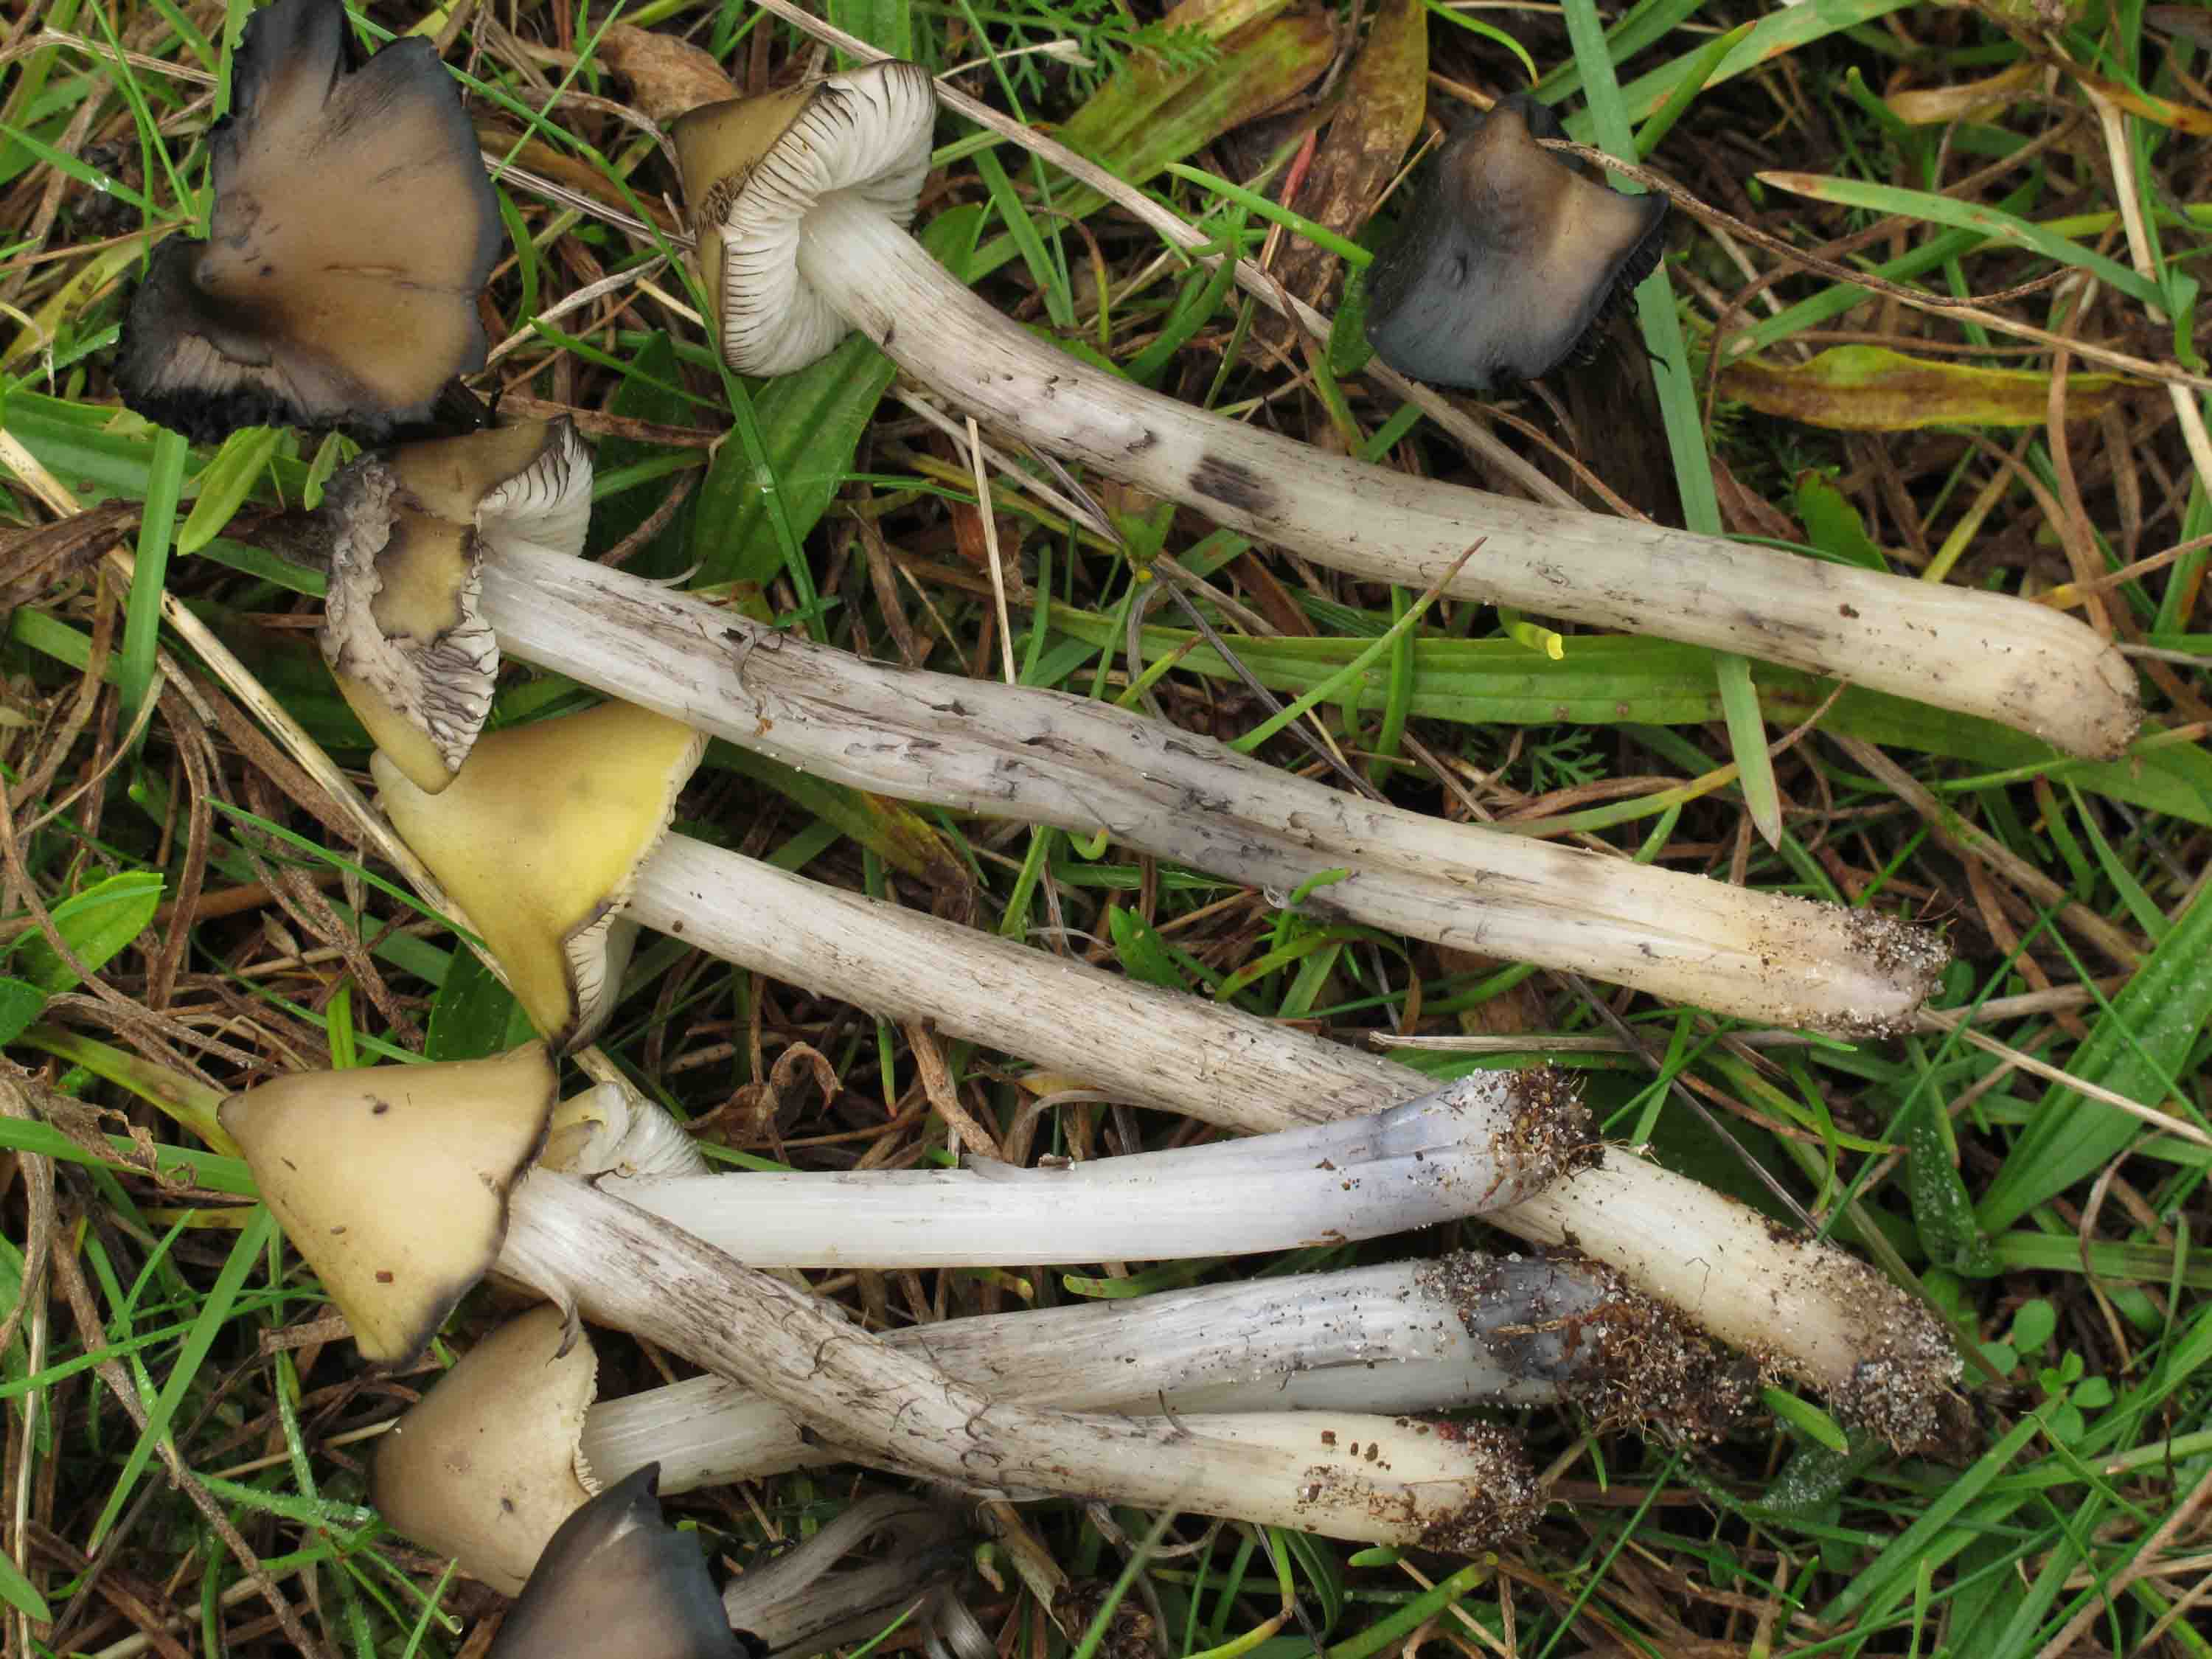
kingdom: Fungi
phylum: Basidiomycota
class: Agaricomycetes
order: Agaricales
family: Hygrophoraceae
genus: Hygrocybe
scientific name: Hygrocybe conica
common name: oliven-vokshat
